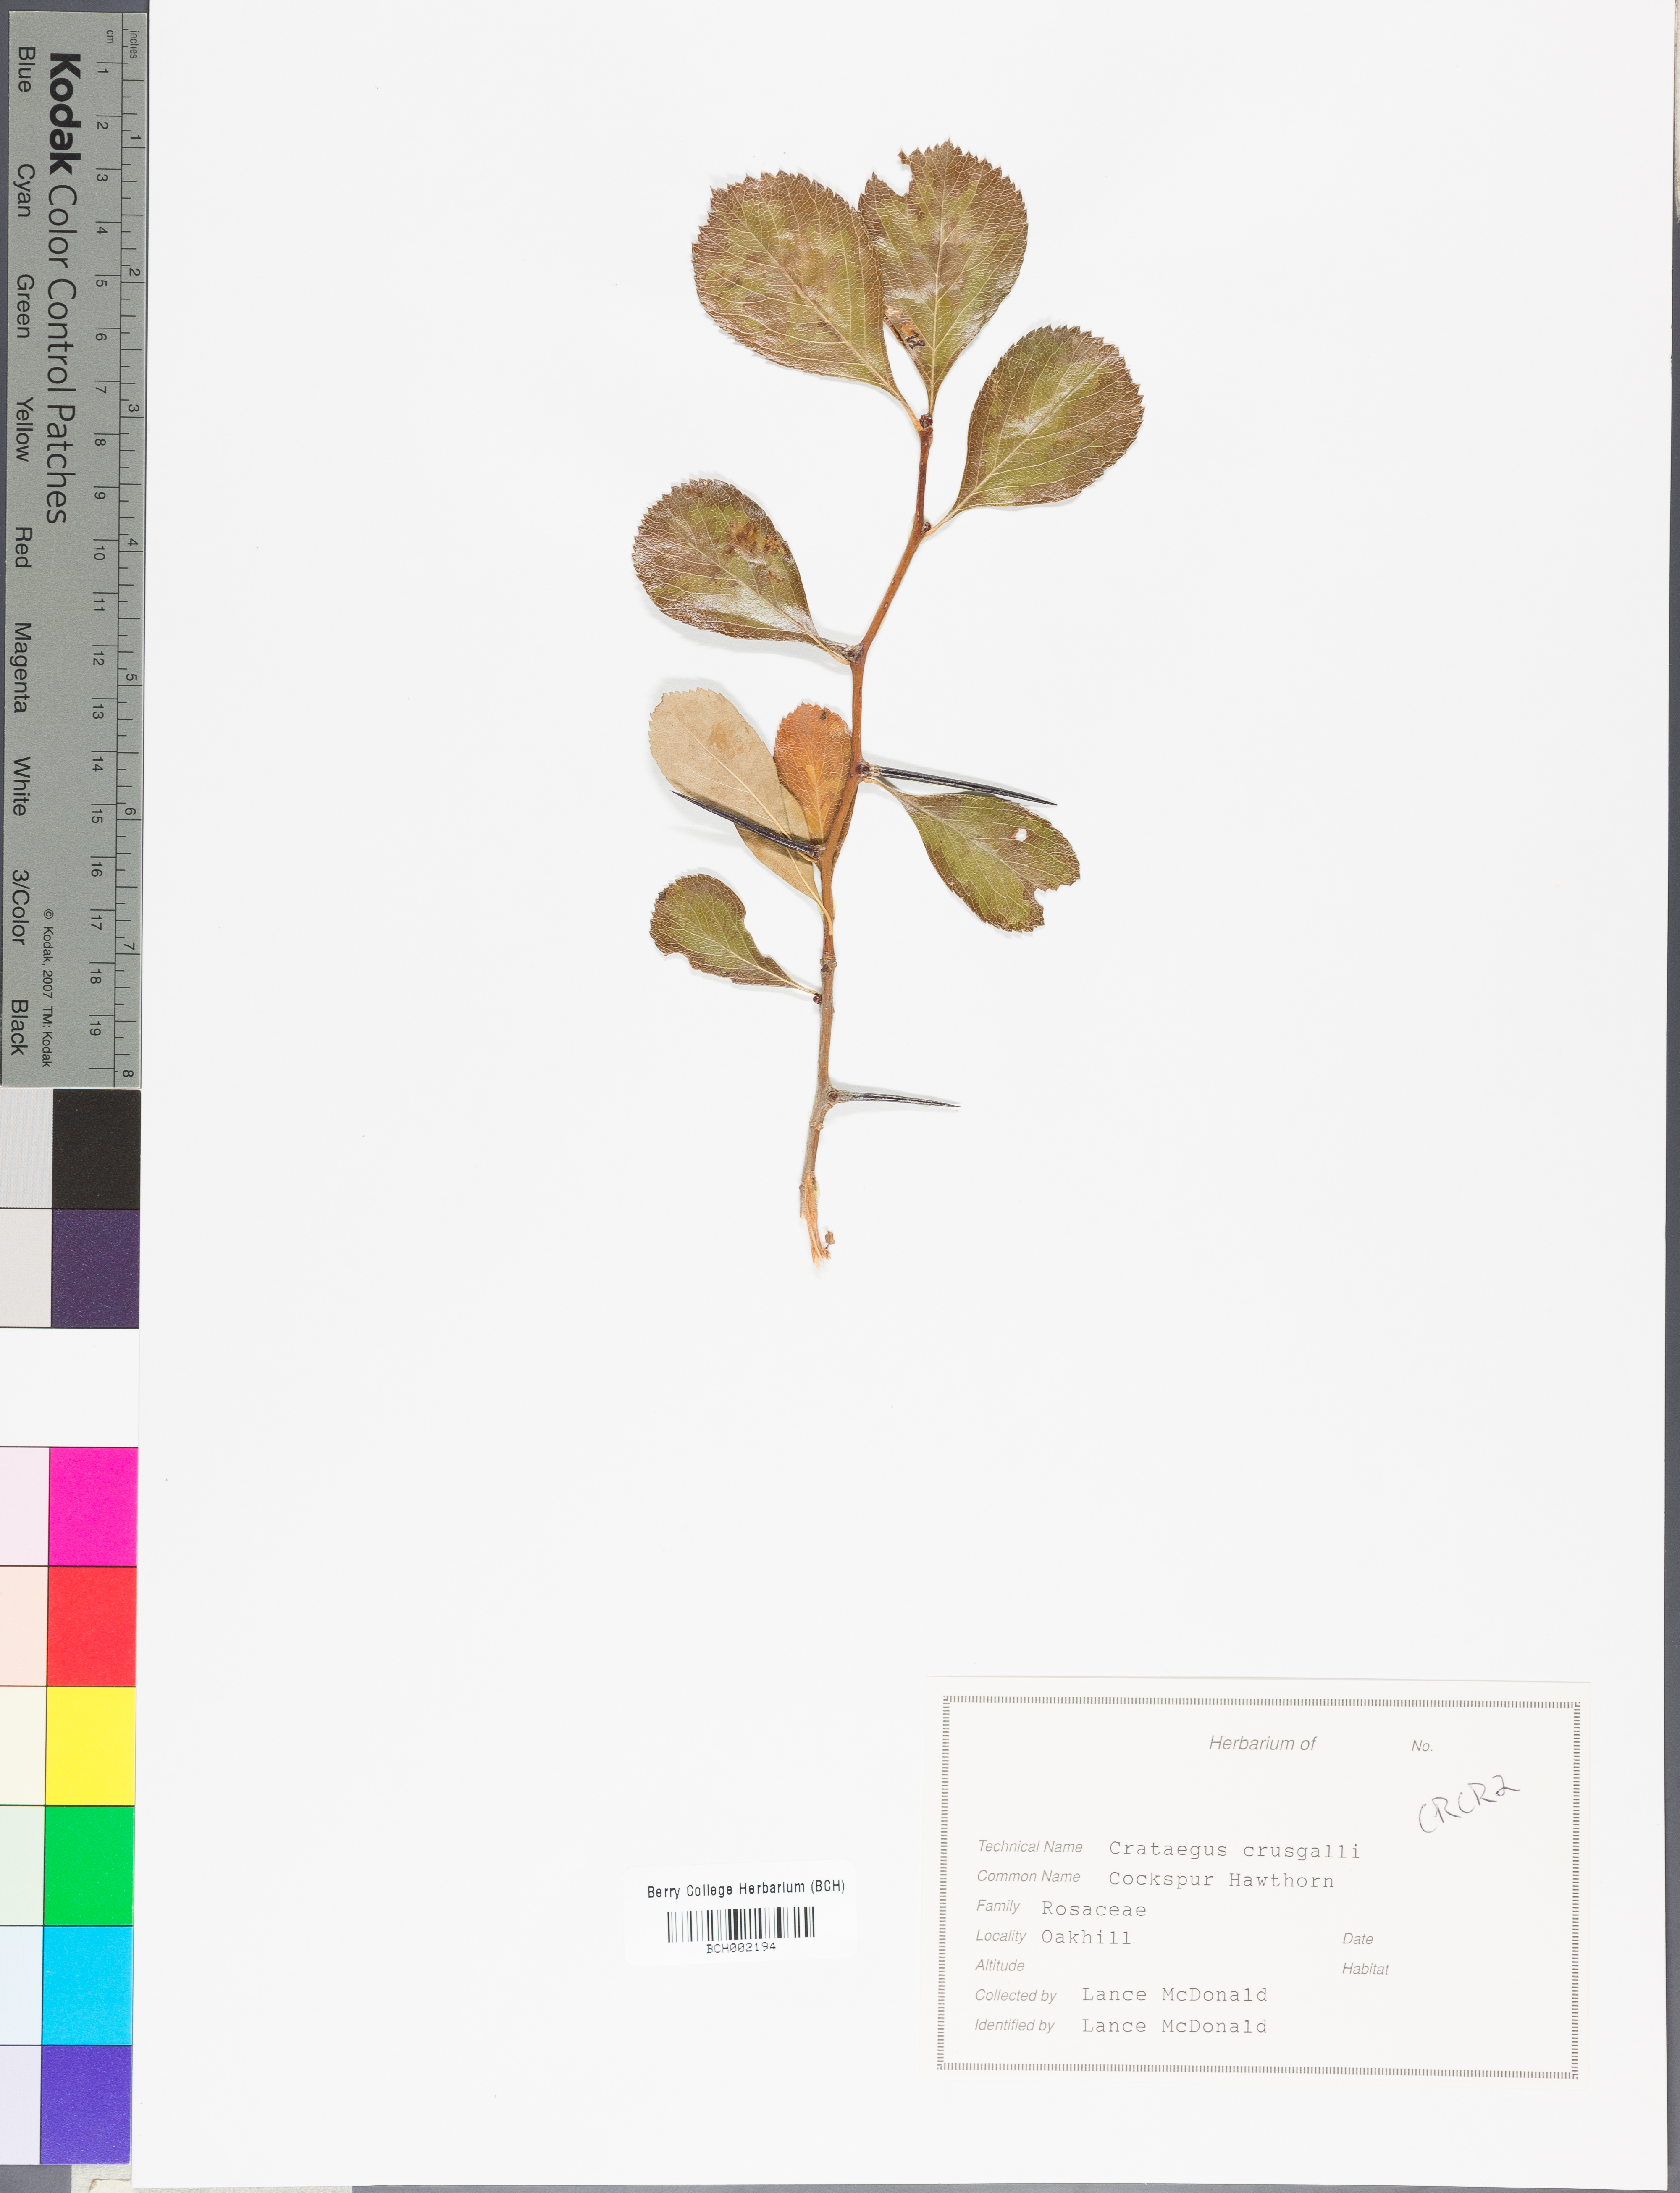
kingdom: Plantae
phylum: Tracheophyta
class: Magnoliopsida
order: Rosales
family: Rosaceae
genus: Crataegus
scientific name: Crataegus crus-galli
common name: Cockspurthorn
